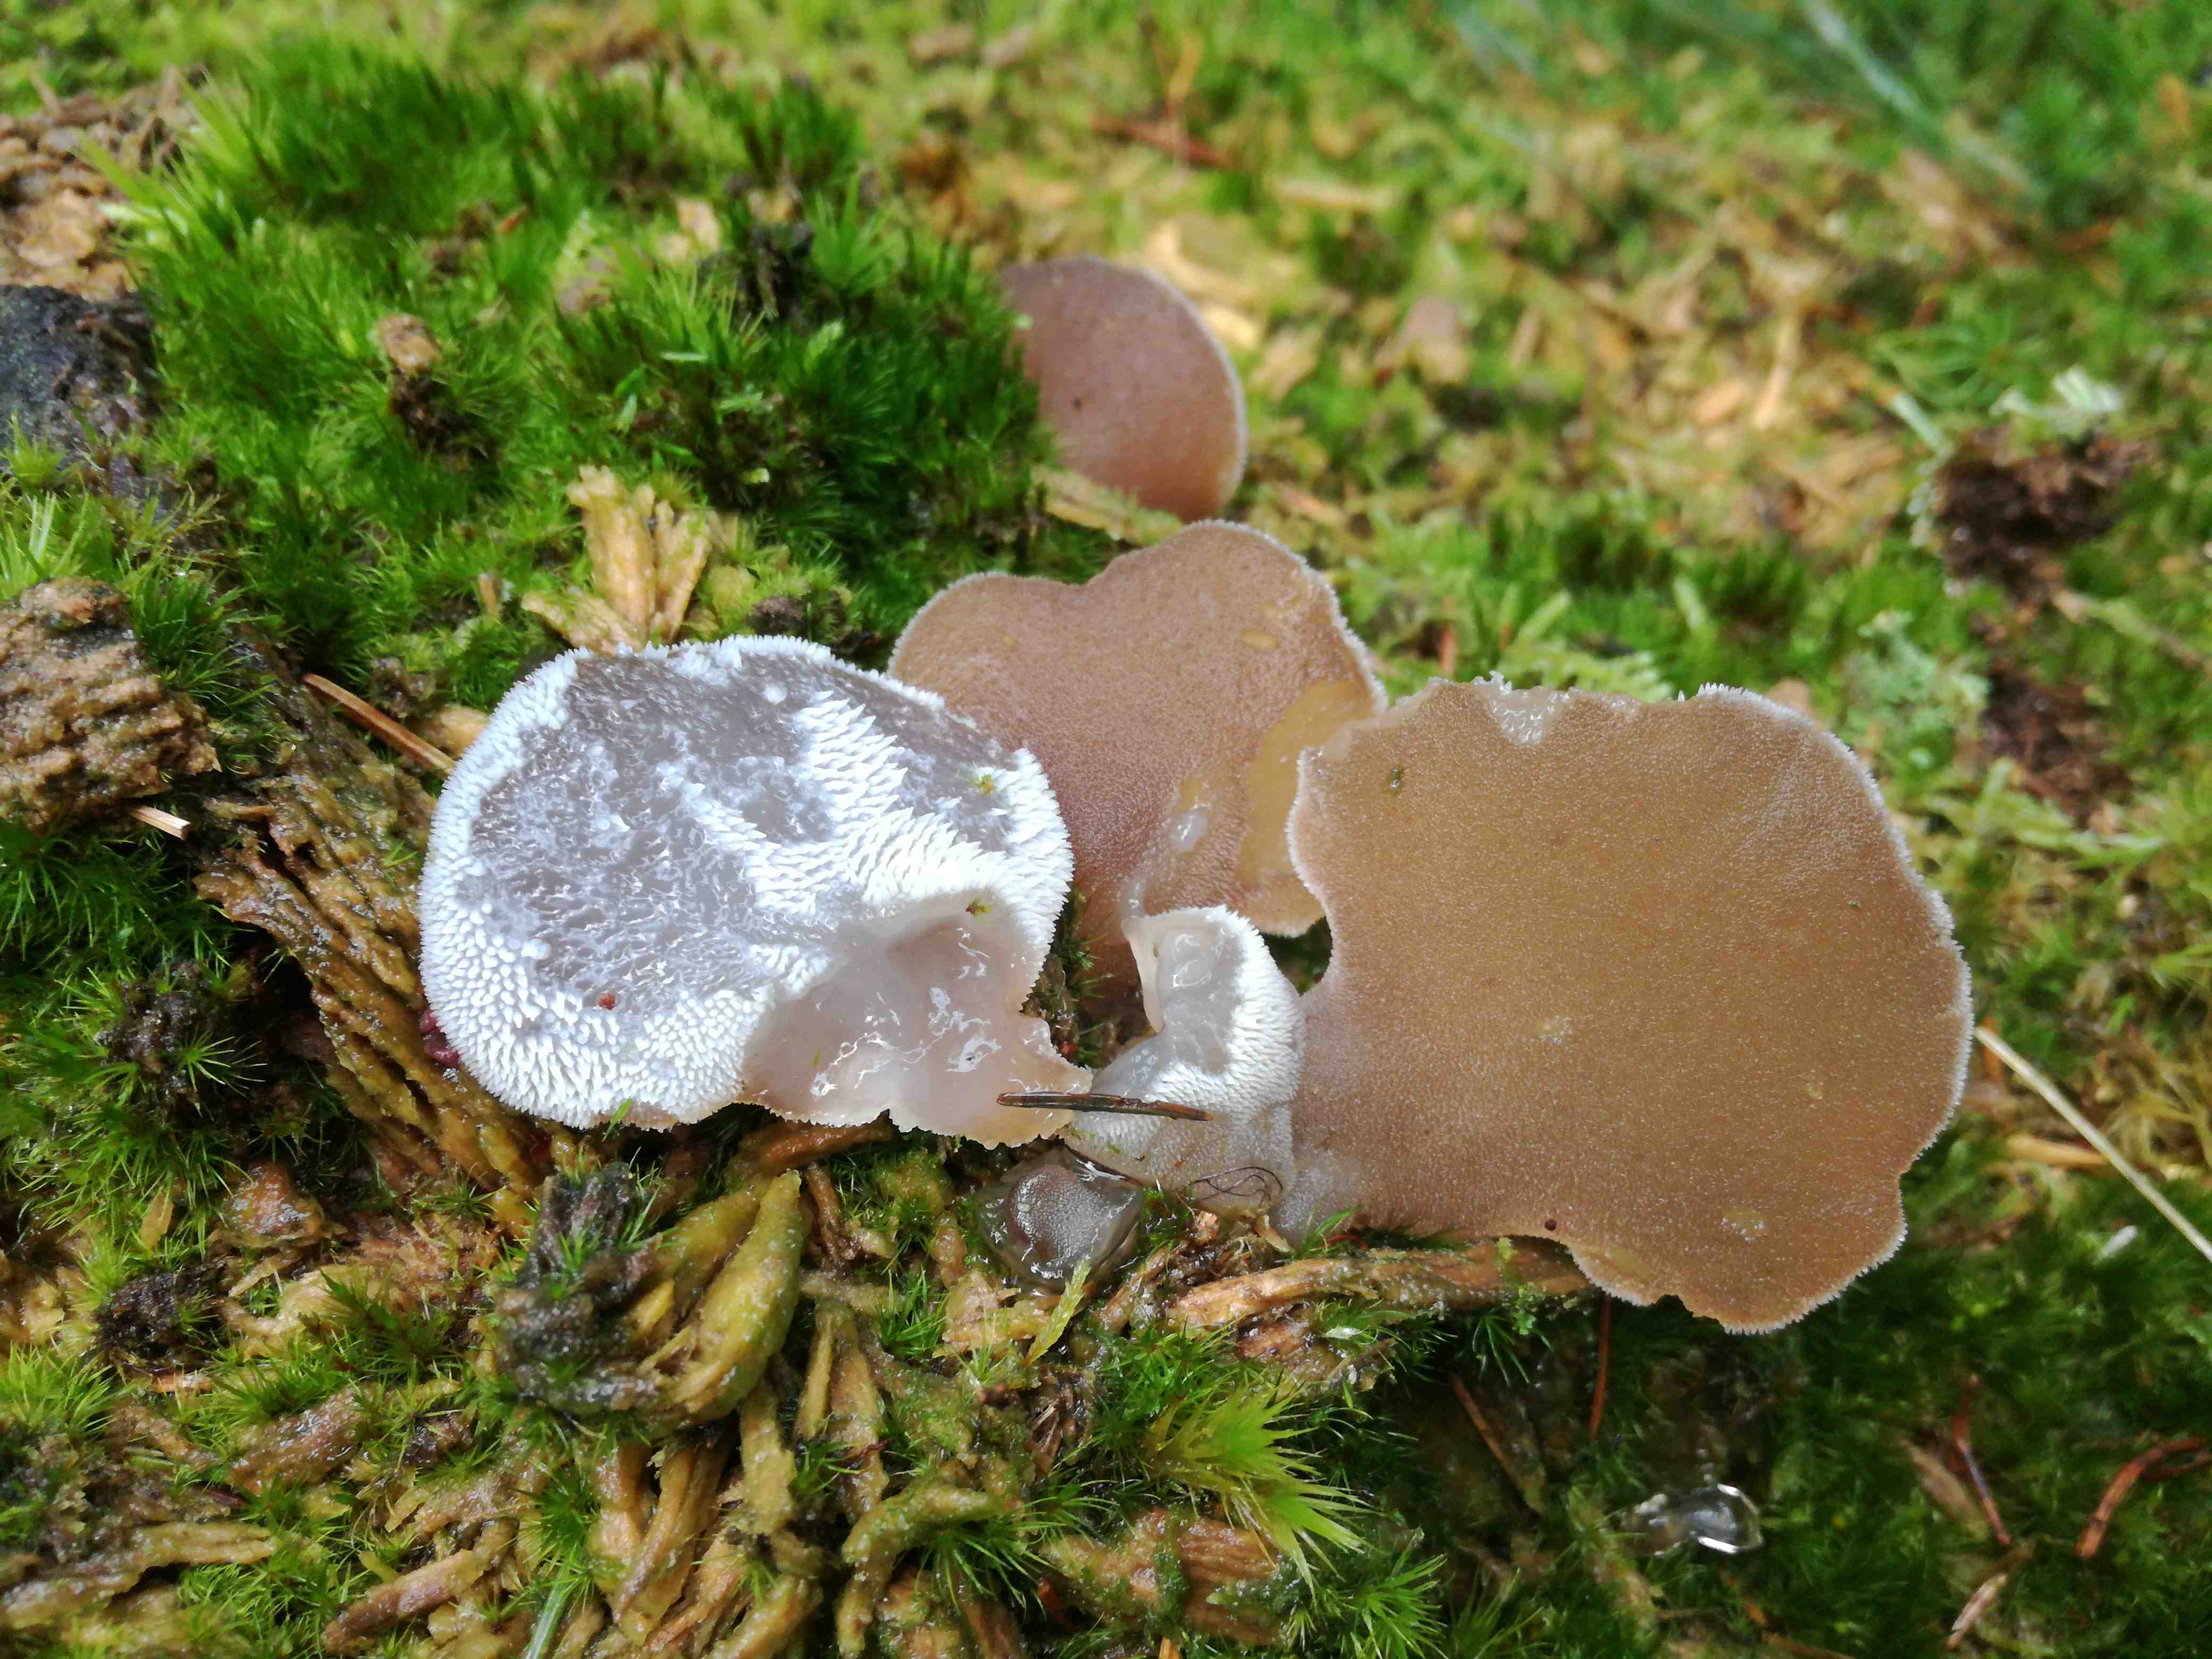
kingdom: Fungi
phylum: Basidiomycota
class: Agaricomycetes
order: Auriculariales
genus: Pseudohydnum
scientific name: Pseudohydnum gelatinosum
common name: bævretand
